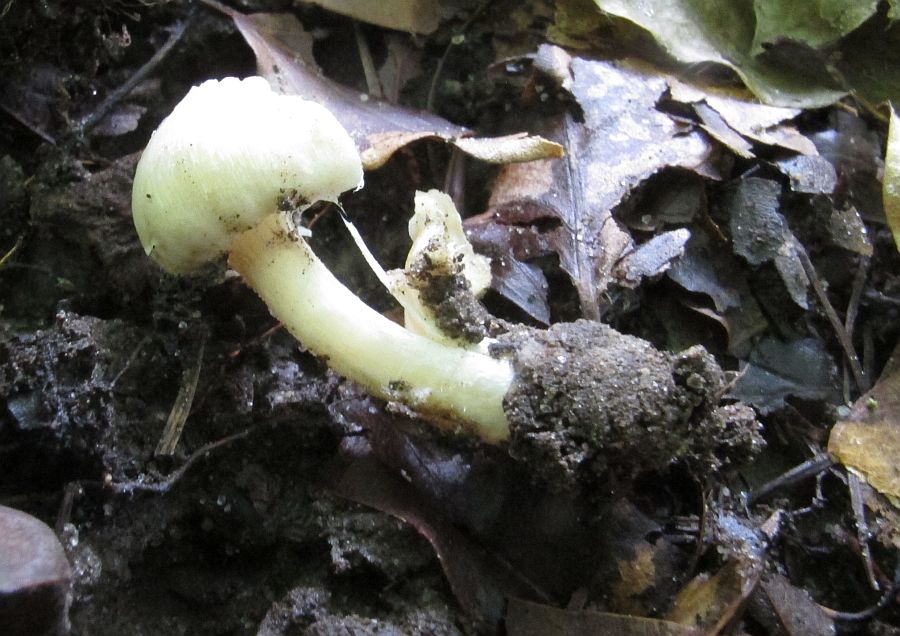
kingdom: Fungi
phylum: Basidiomycota
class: Agaricomycetes
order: Agaricales
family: Inocybaceae
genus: Inocybe
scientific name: Inocybe
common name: almindelig trævlhat
